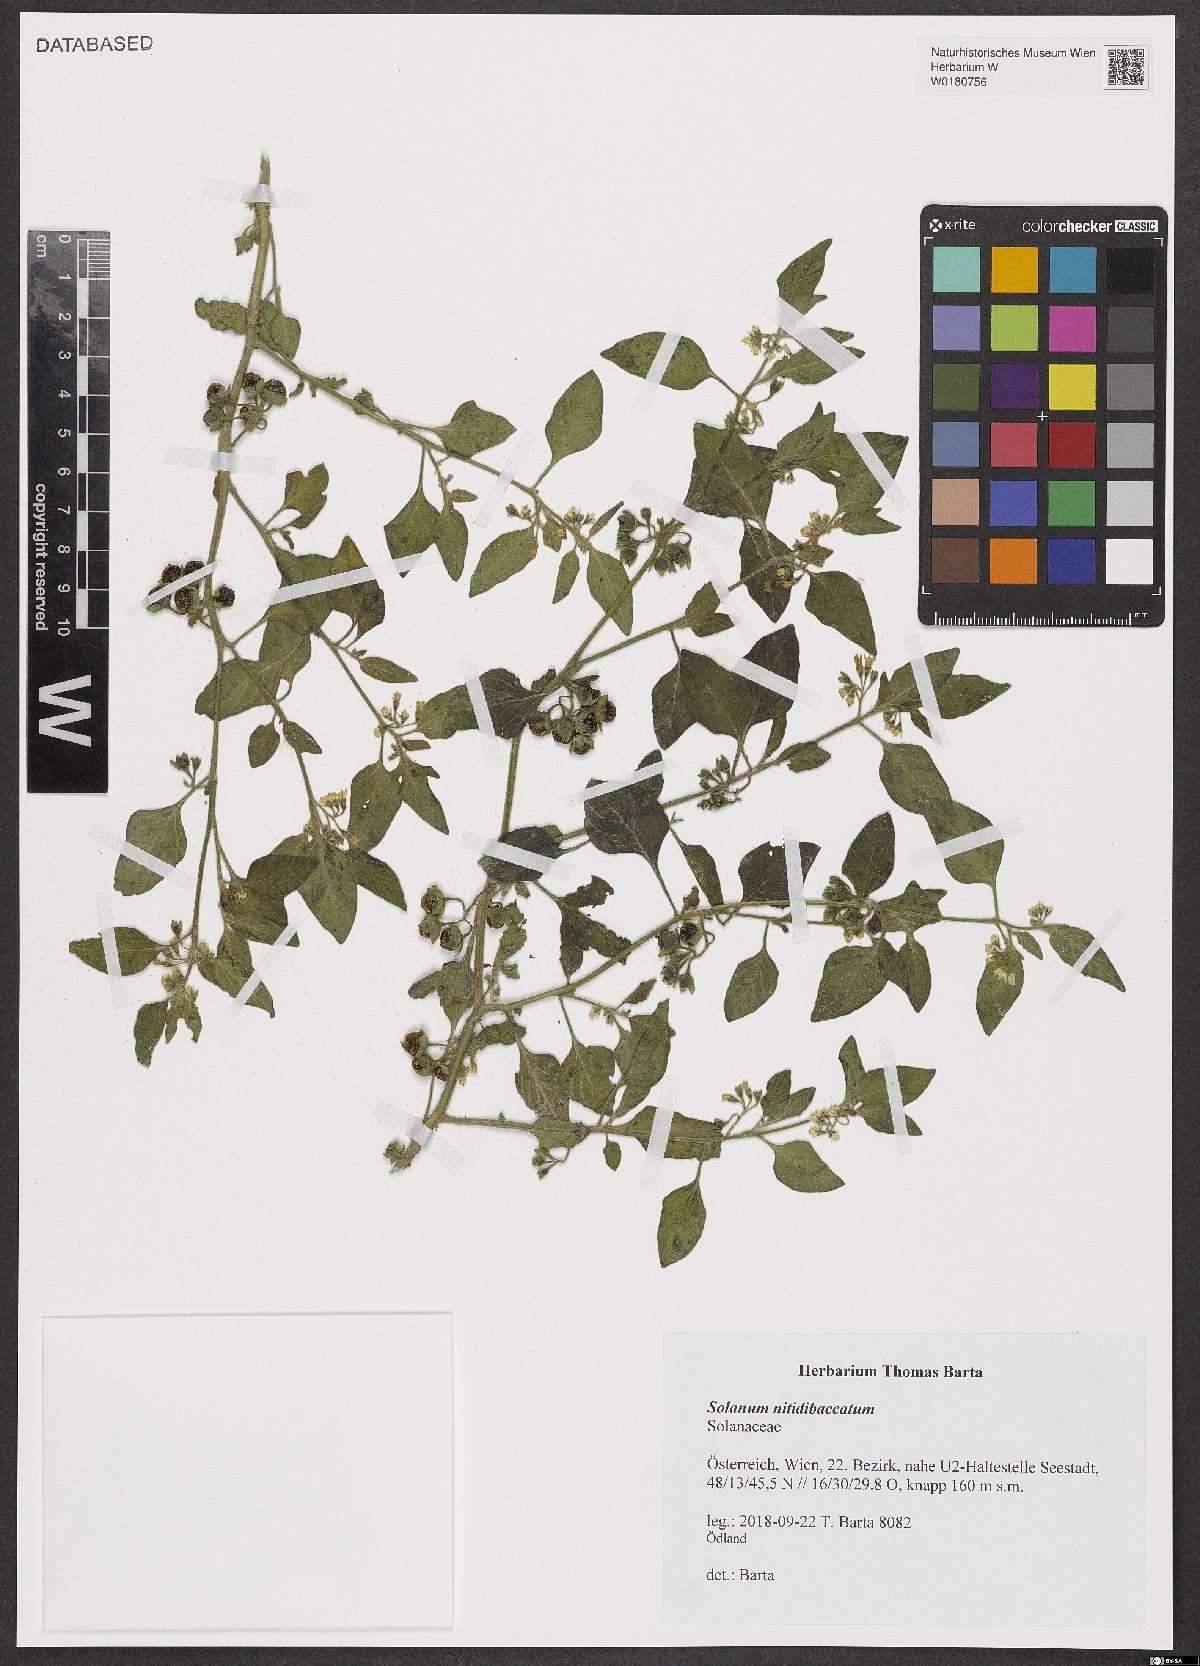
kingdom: Plantae
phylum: Tracheophyta
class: Magnoliopsida
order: Solanales
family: Solanaceae
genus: Solanum
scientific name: Solanum nitidibaccatum
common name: Hairy nightshade
